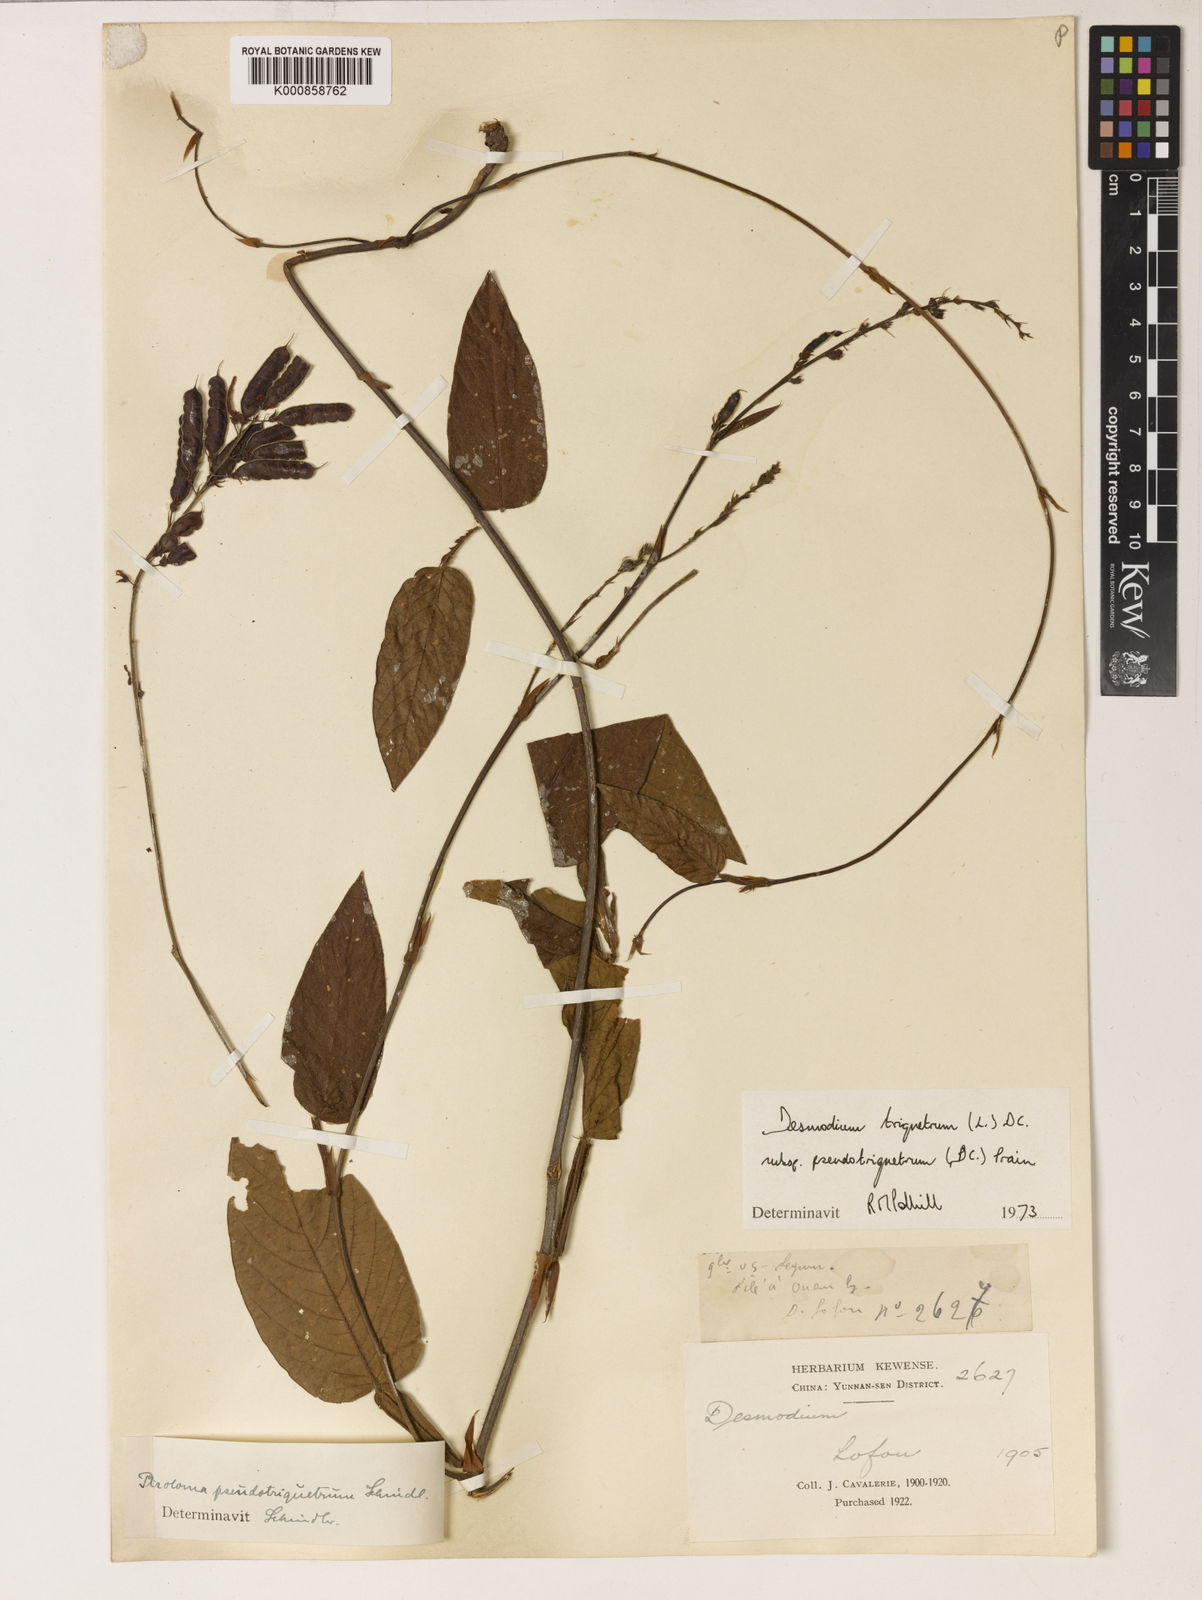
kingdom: Plantae
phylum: Tracheophyta
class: Magnoliopsida
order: Fabales
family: Fabaceae
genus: Tadehagi
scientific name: Tadehagi pseudotriquetrum
